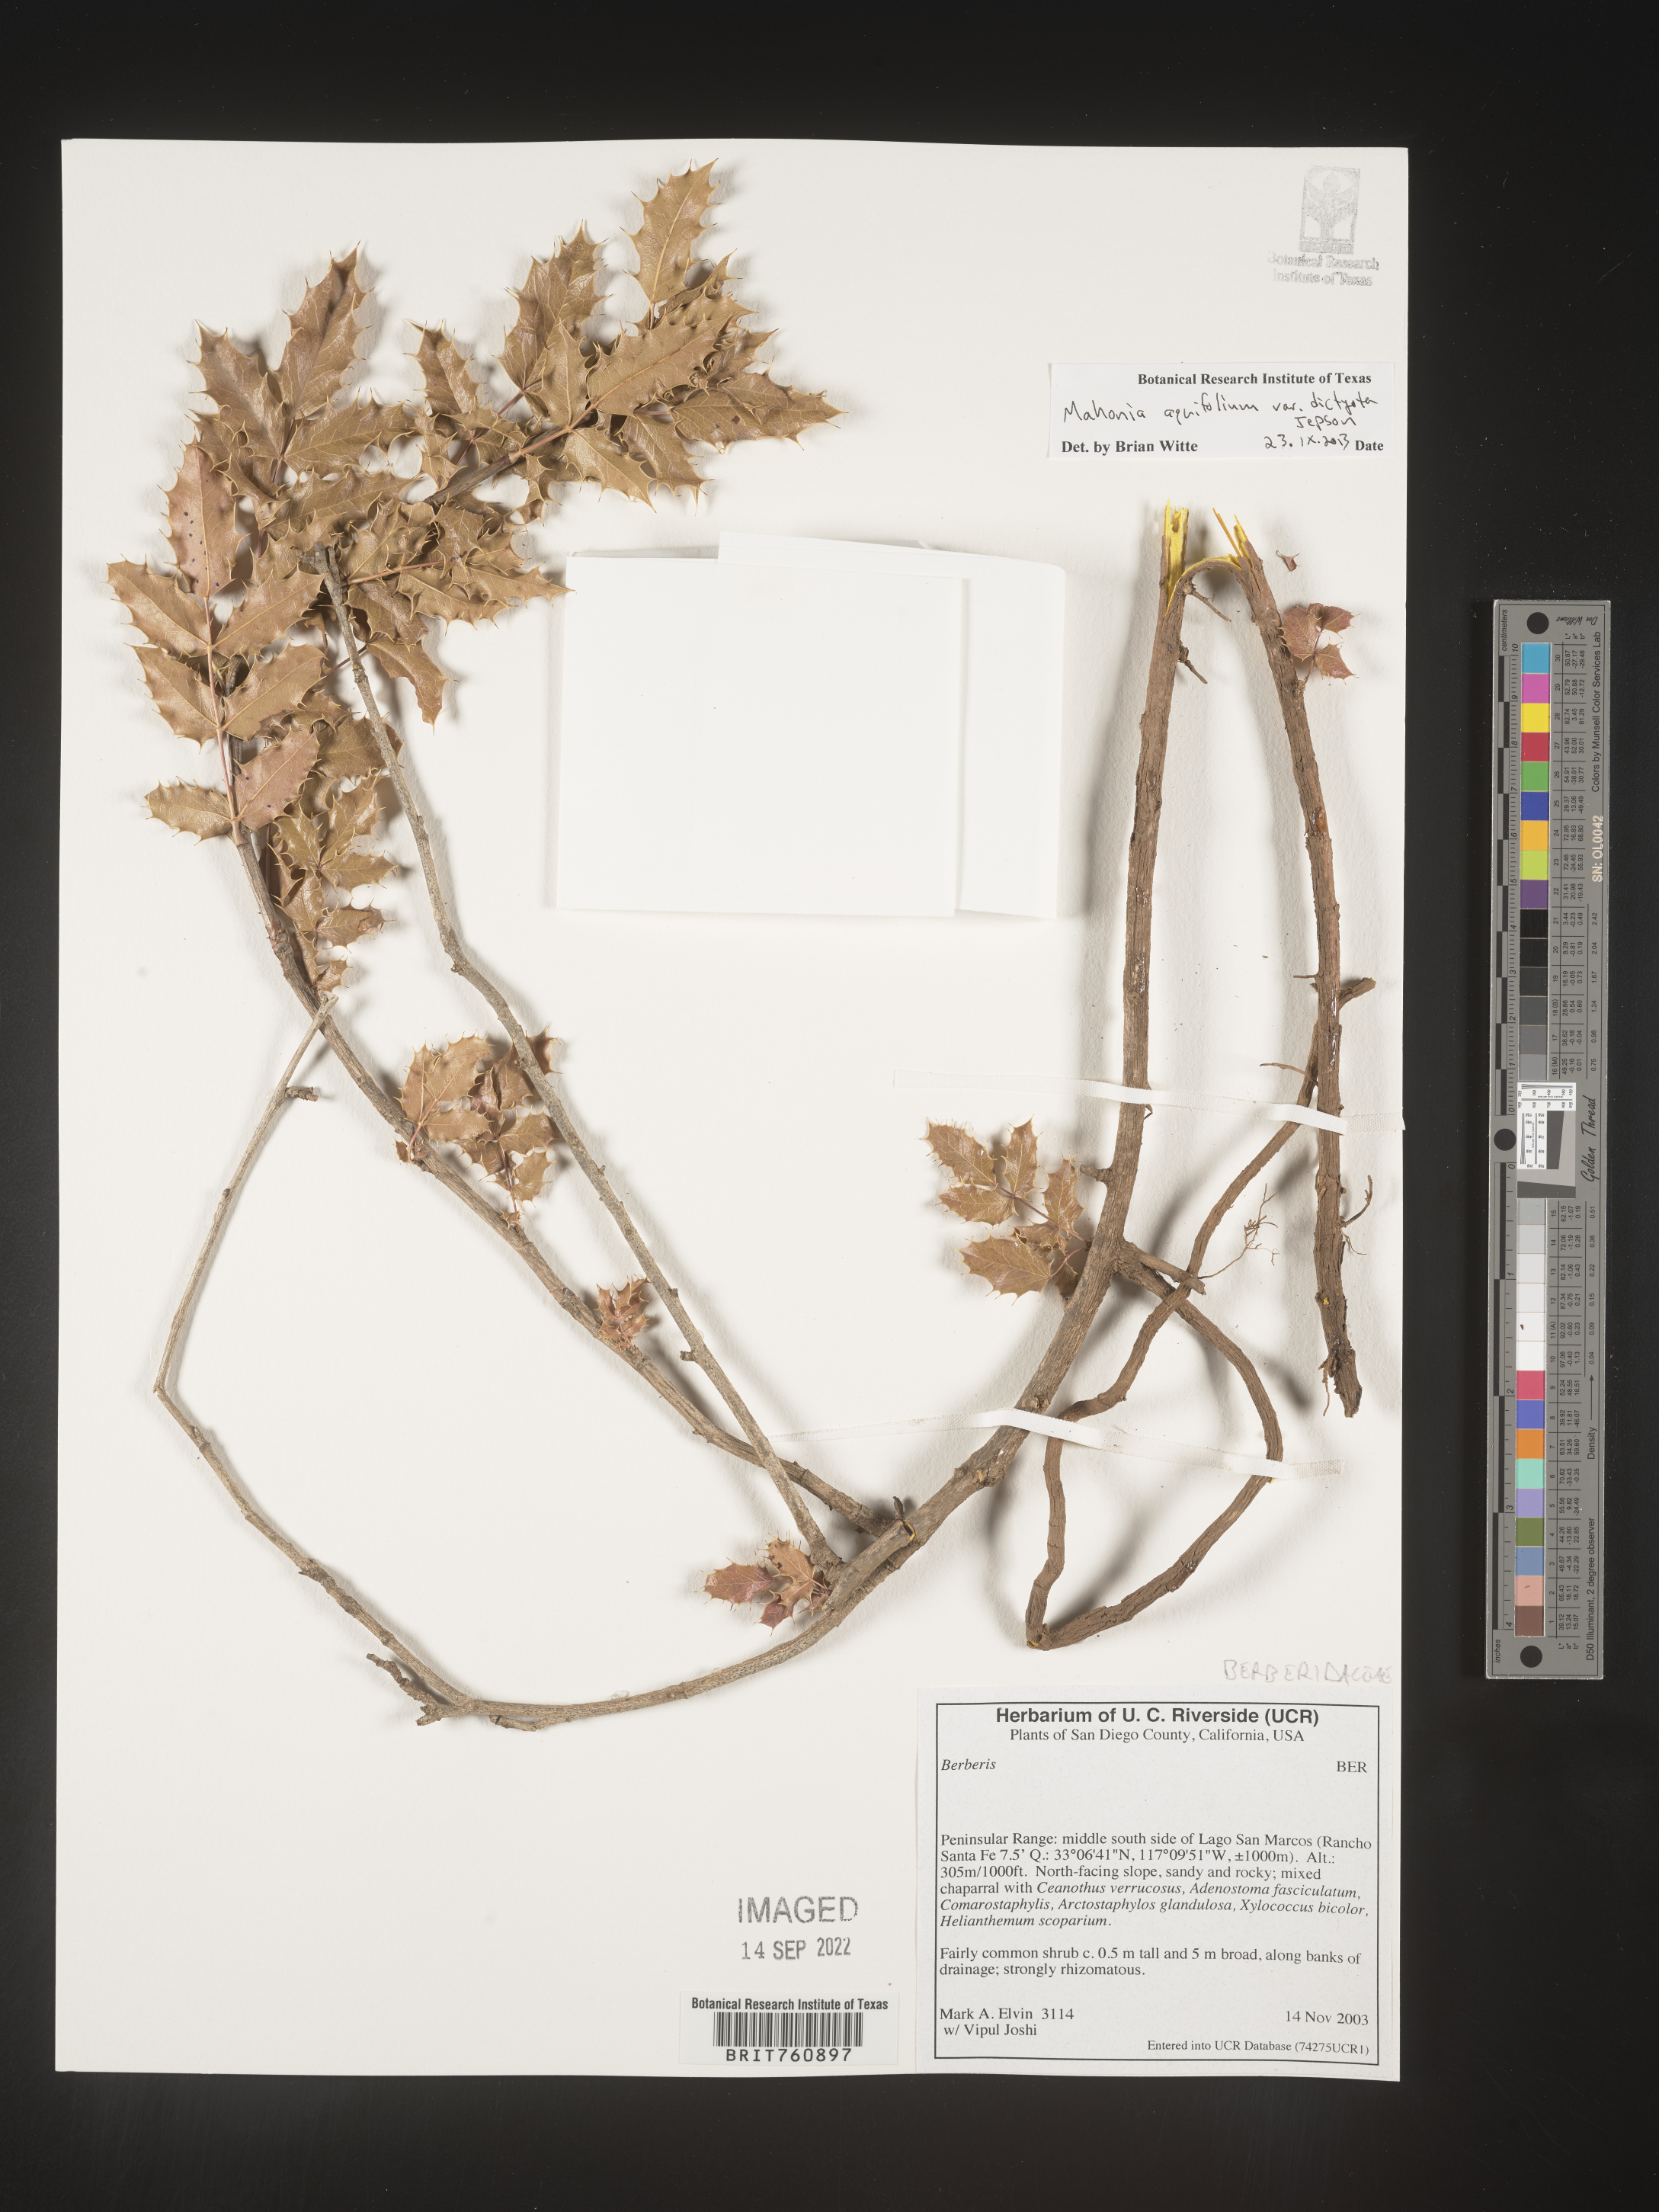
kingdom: Plantae
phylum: Tracheophyta
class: Magnoliopsida
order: Ranunculales
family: Berberidaceae
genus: Mahonia
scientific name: Mahonia aquifolium
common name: Oregon-grape
